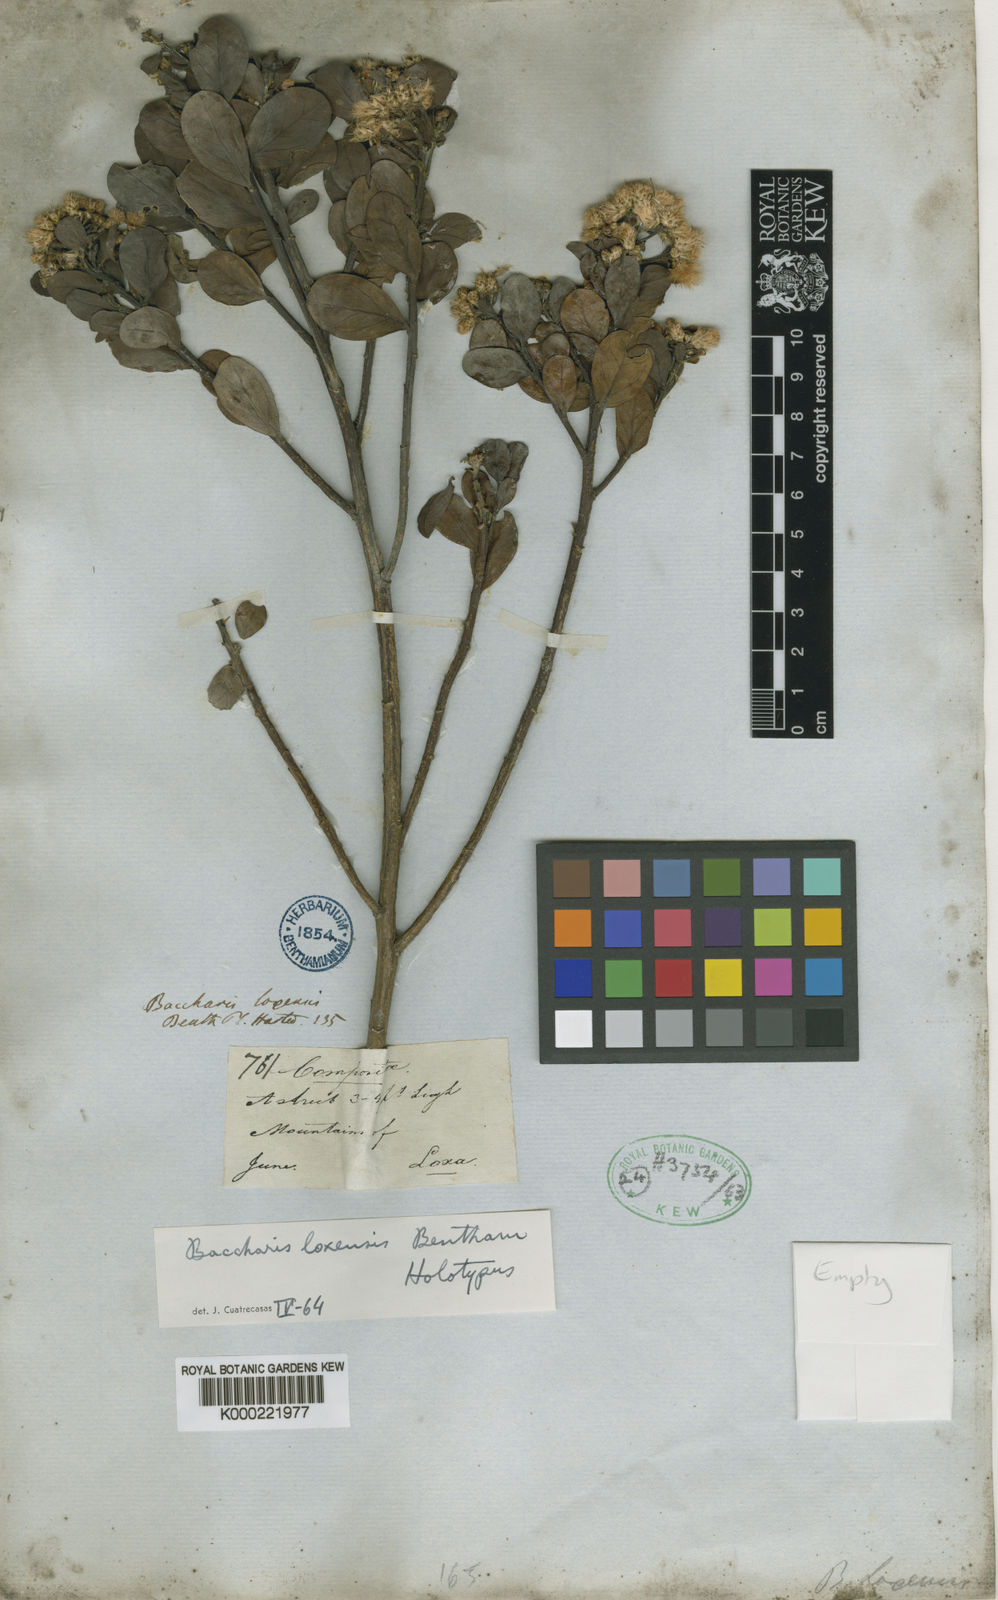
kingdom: Plantae
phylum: Tracheophyta
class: Magnoliopsida
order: Asterales
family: Asteraceae
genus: Baccharis
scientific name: Baccharis obtusifolia
